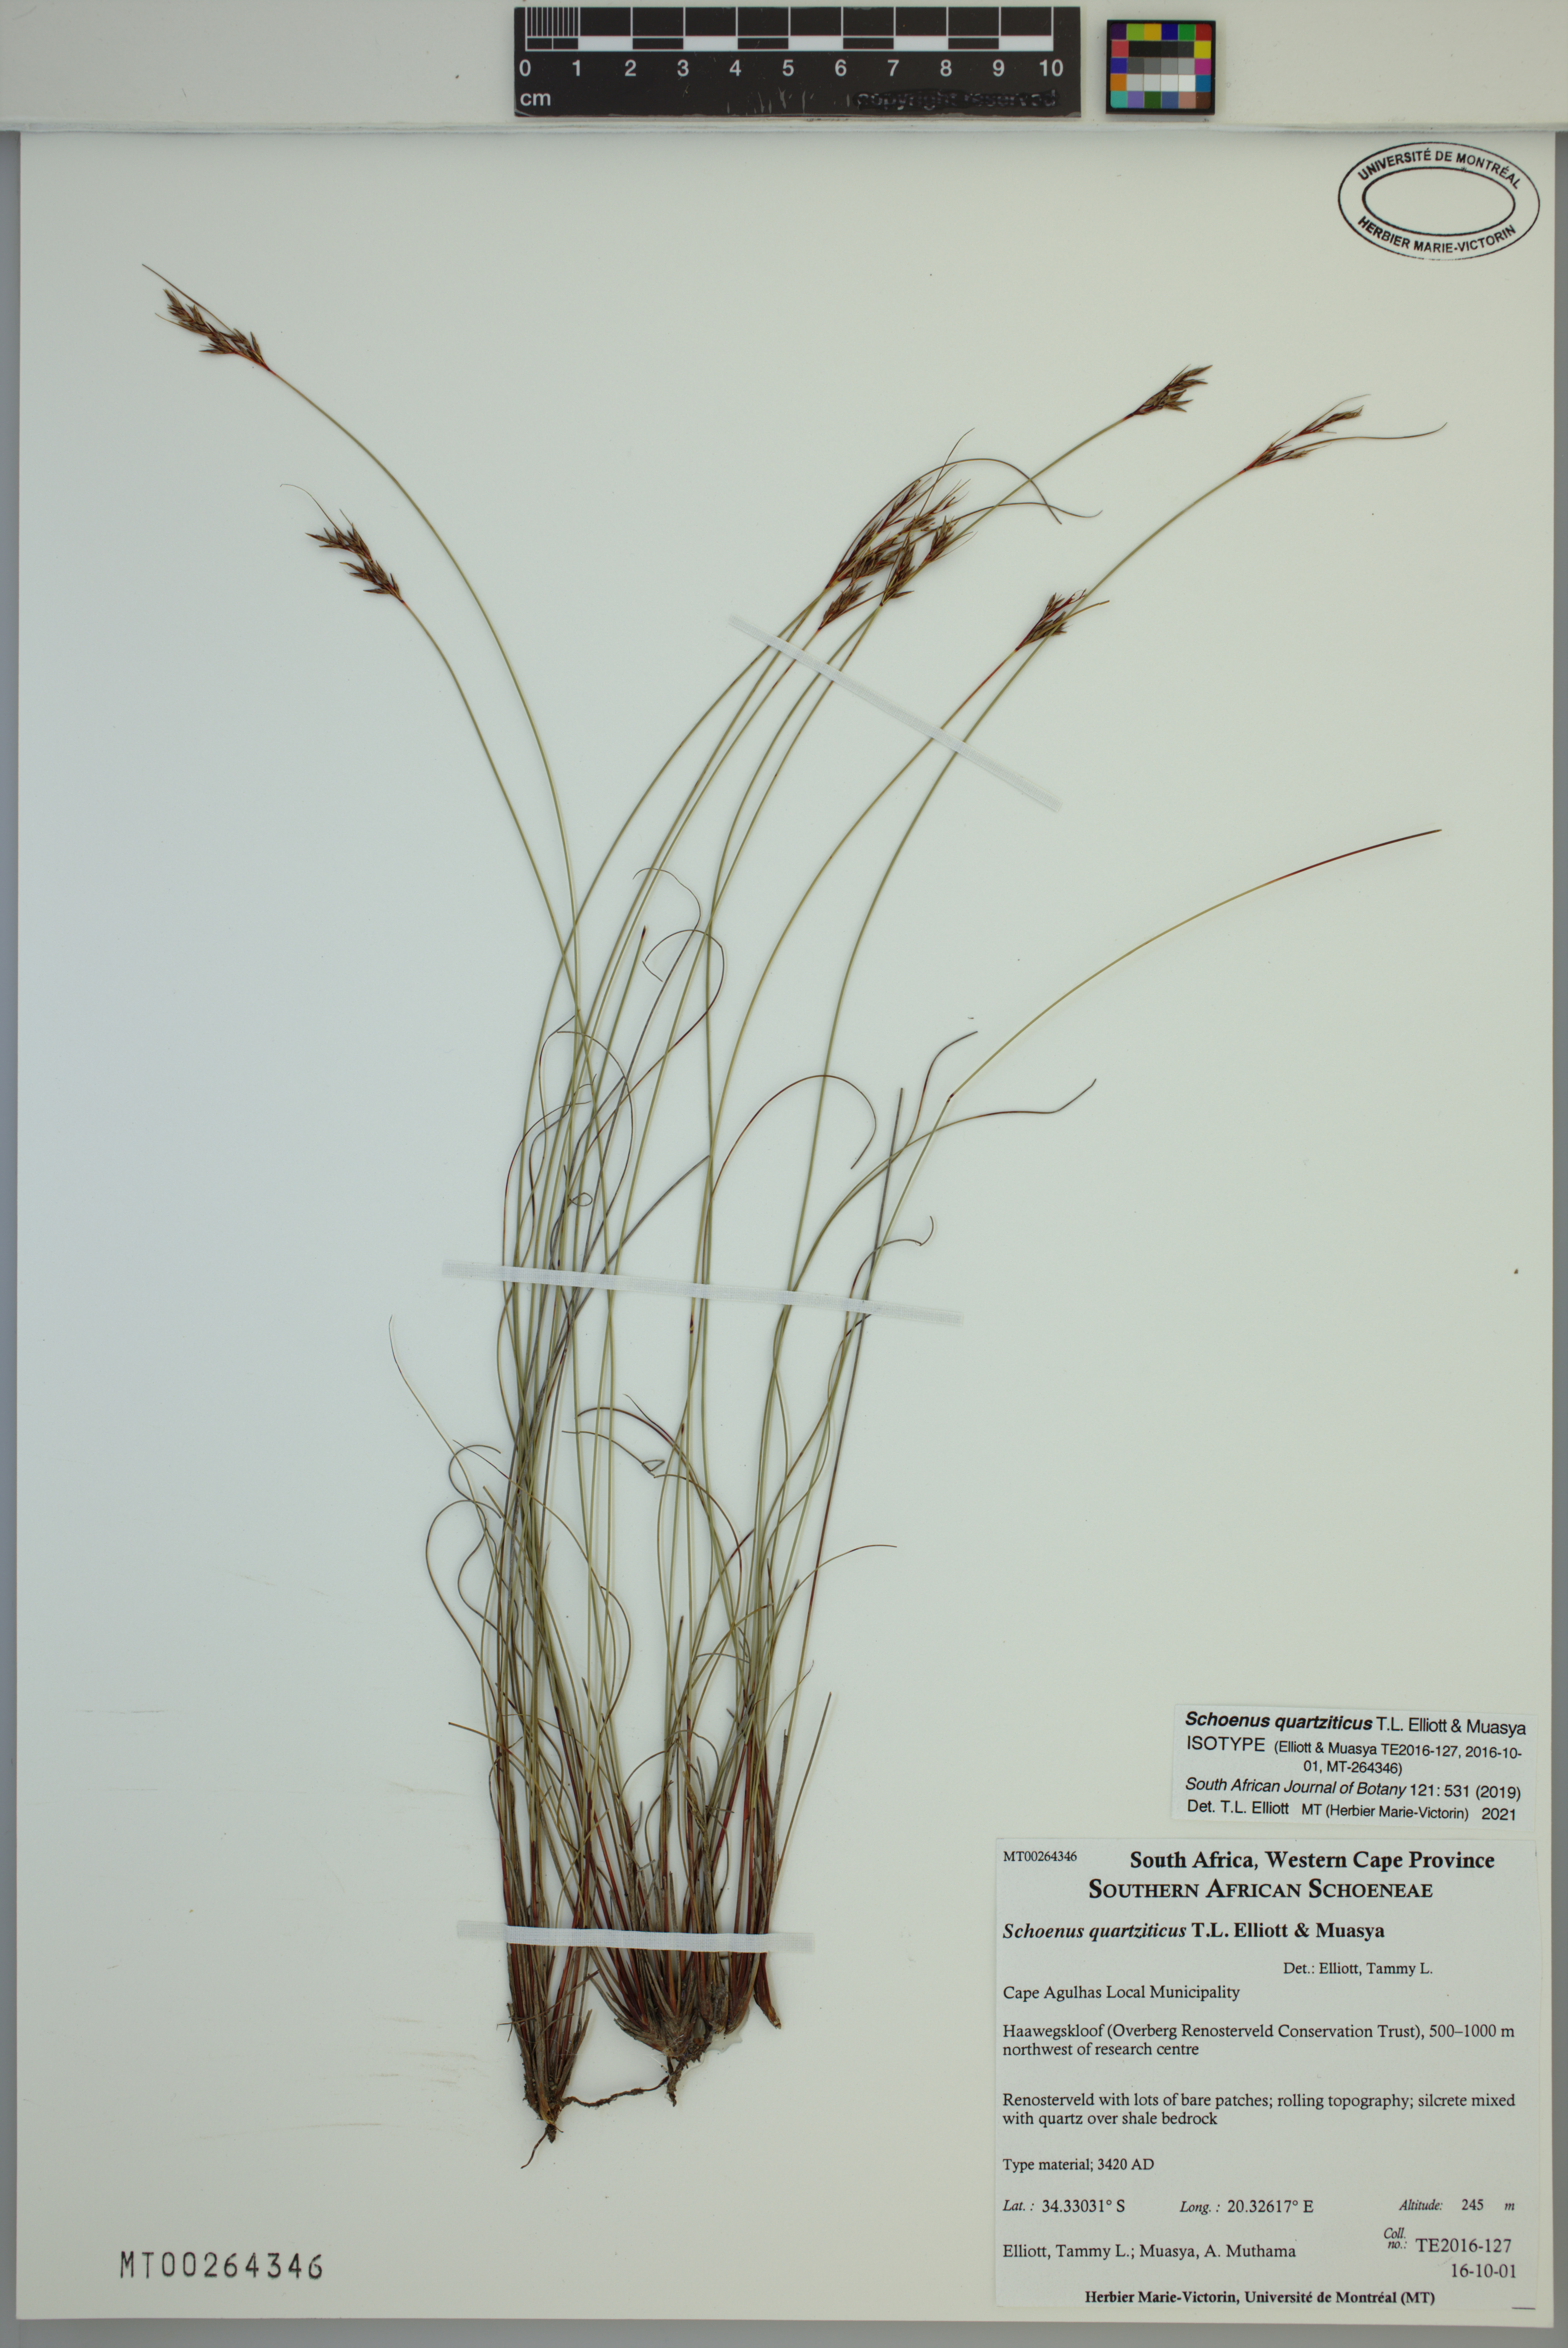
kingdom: Plantae
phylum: Tracheophyta
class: Liliopsida
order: Poales
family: Cyperaceae
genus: Schoenus
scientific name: Schoenus quartziticus
